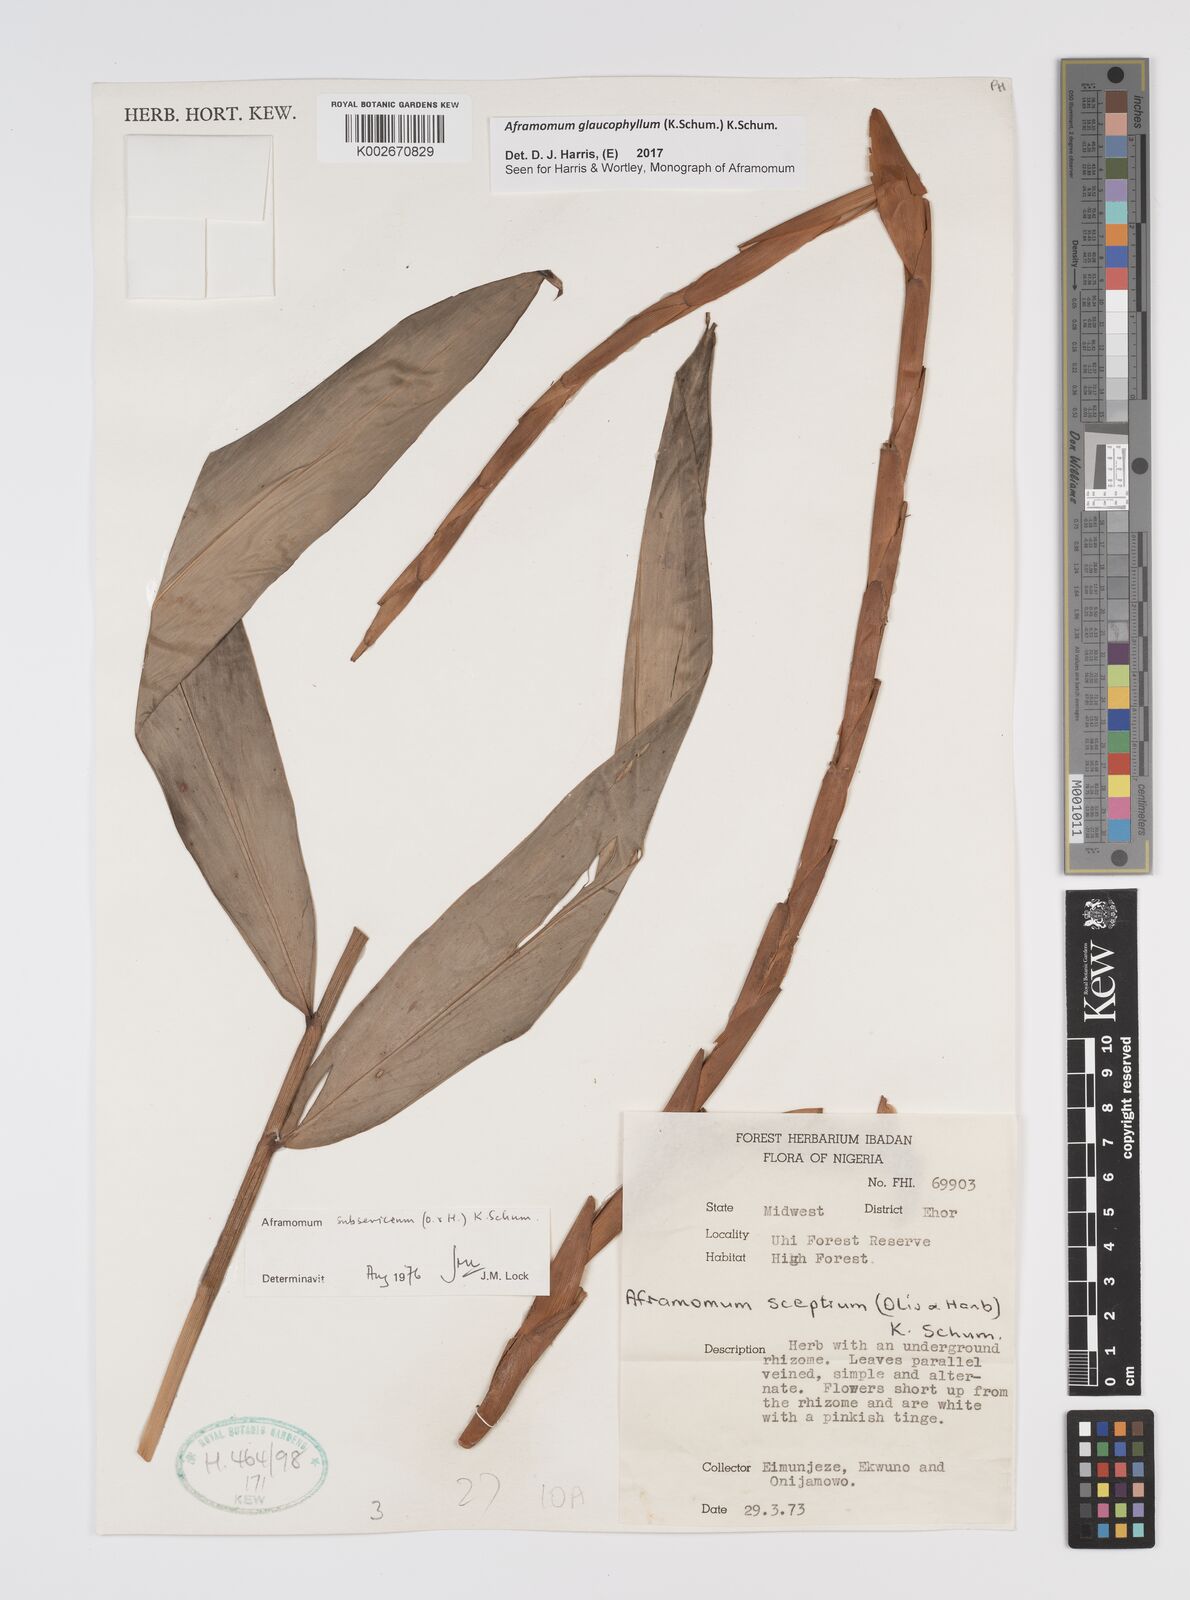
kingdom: Plantae
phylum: Tracheophyta
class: Liliopsida
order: Zingiberales
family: Zingiberaceae
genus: Aframomum
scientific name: Aframomum glaucophyllum
